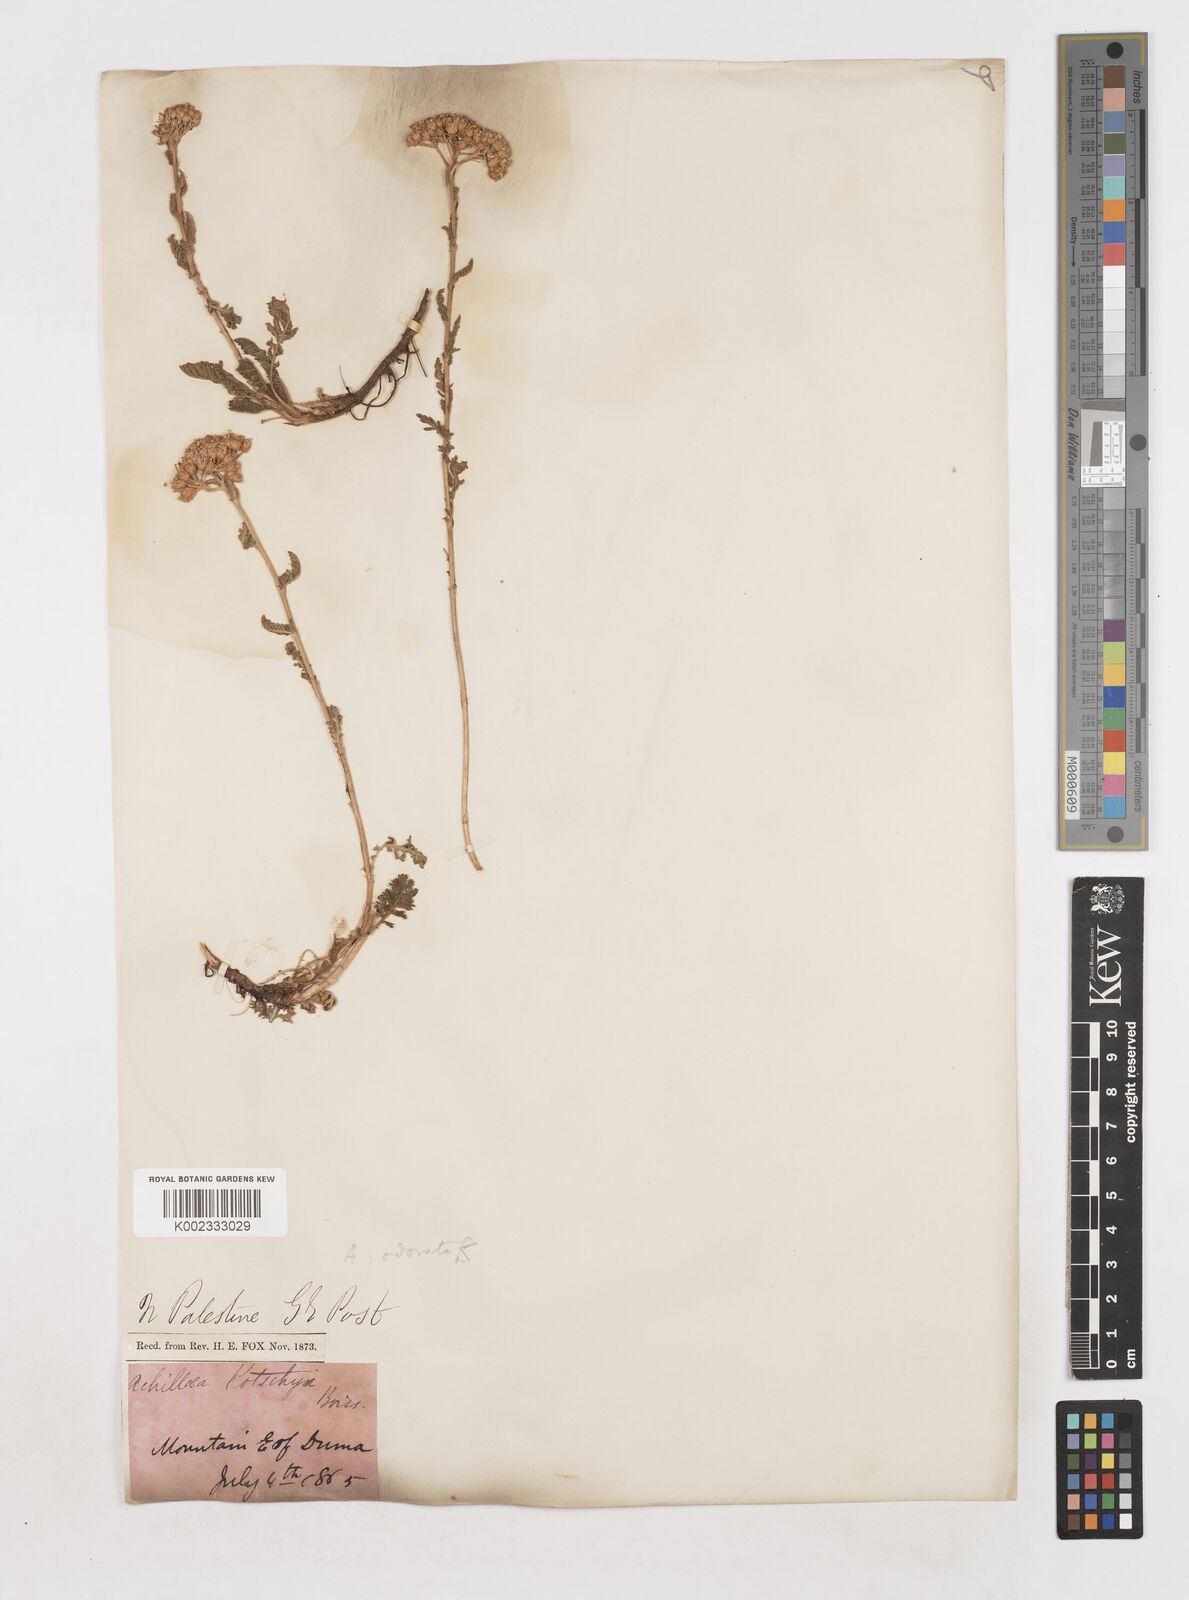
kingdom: Plantae
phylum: Tracheophyta
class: Magnoliopsida
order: Asterales
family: Asteraceae
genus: Achillea
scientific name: Achillea odorata
